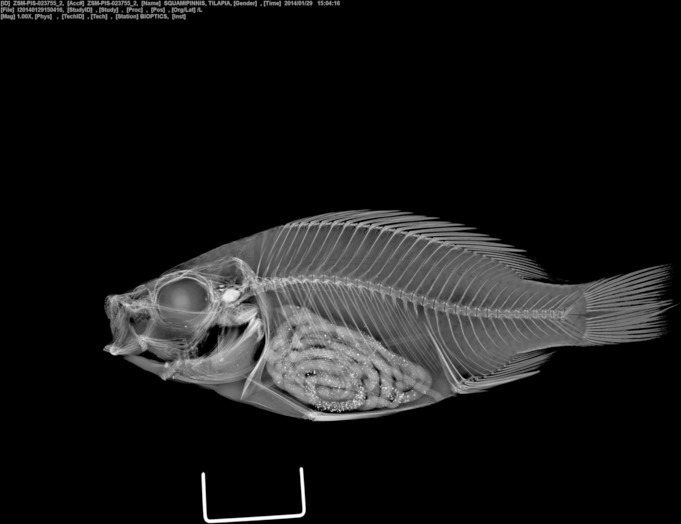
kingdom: Animalia
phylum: Chordata
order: Perciformes
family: Cichlidae
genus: Oreochromis
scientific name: Oreochromis squamipinnis
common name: Chambo
